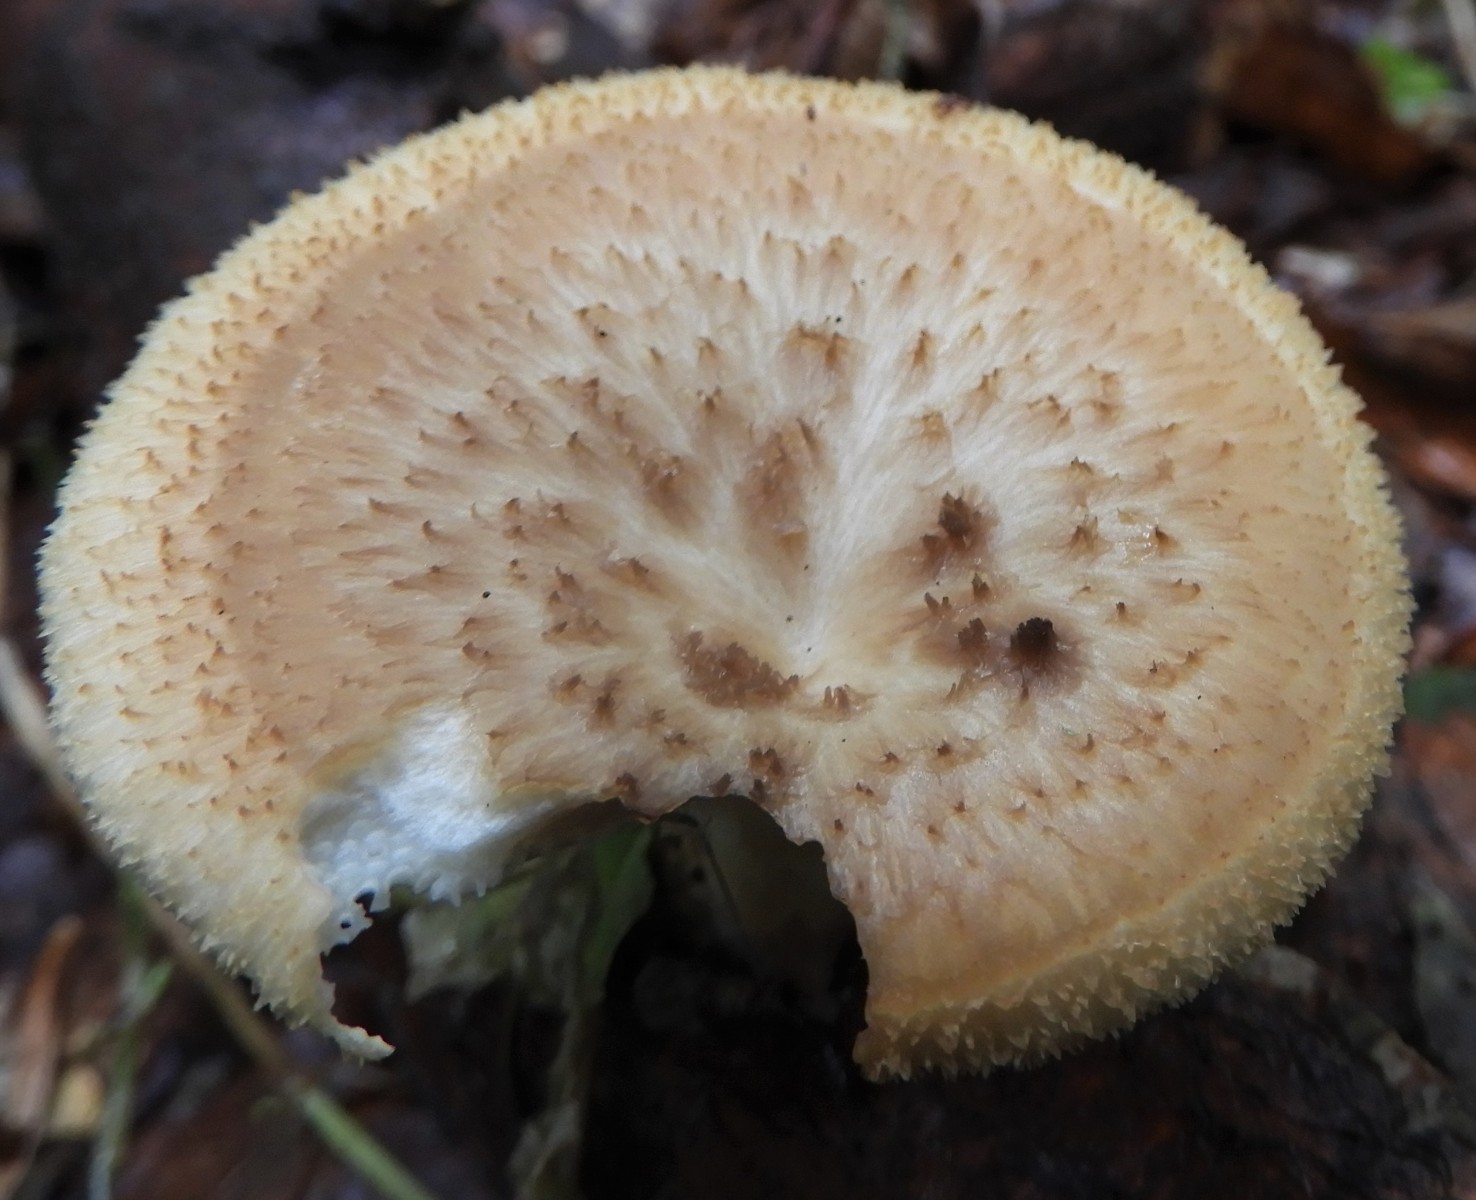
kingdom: Fungi
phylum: Basidiomycota
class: Agaricomycetes
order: Polyporales
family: Polyporaceae
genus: Polyporus
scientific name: Polyporus tuberaster
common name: knoldet stilkporesvamp
